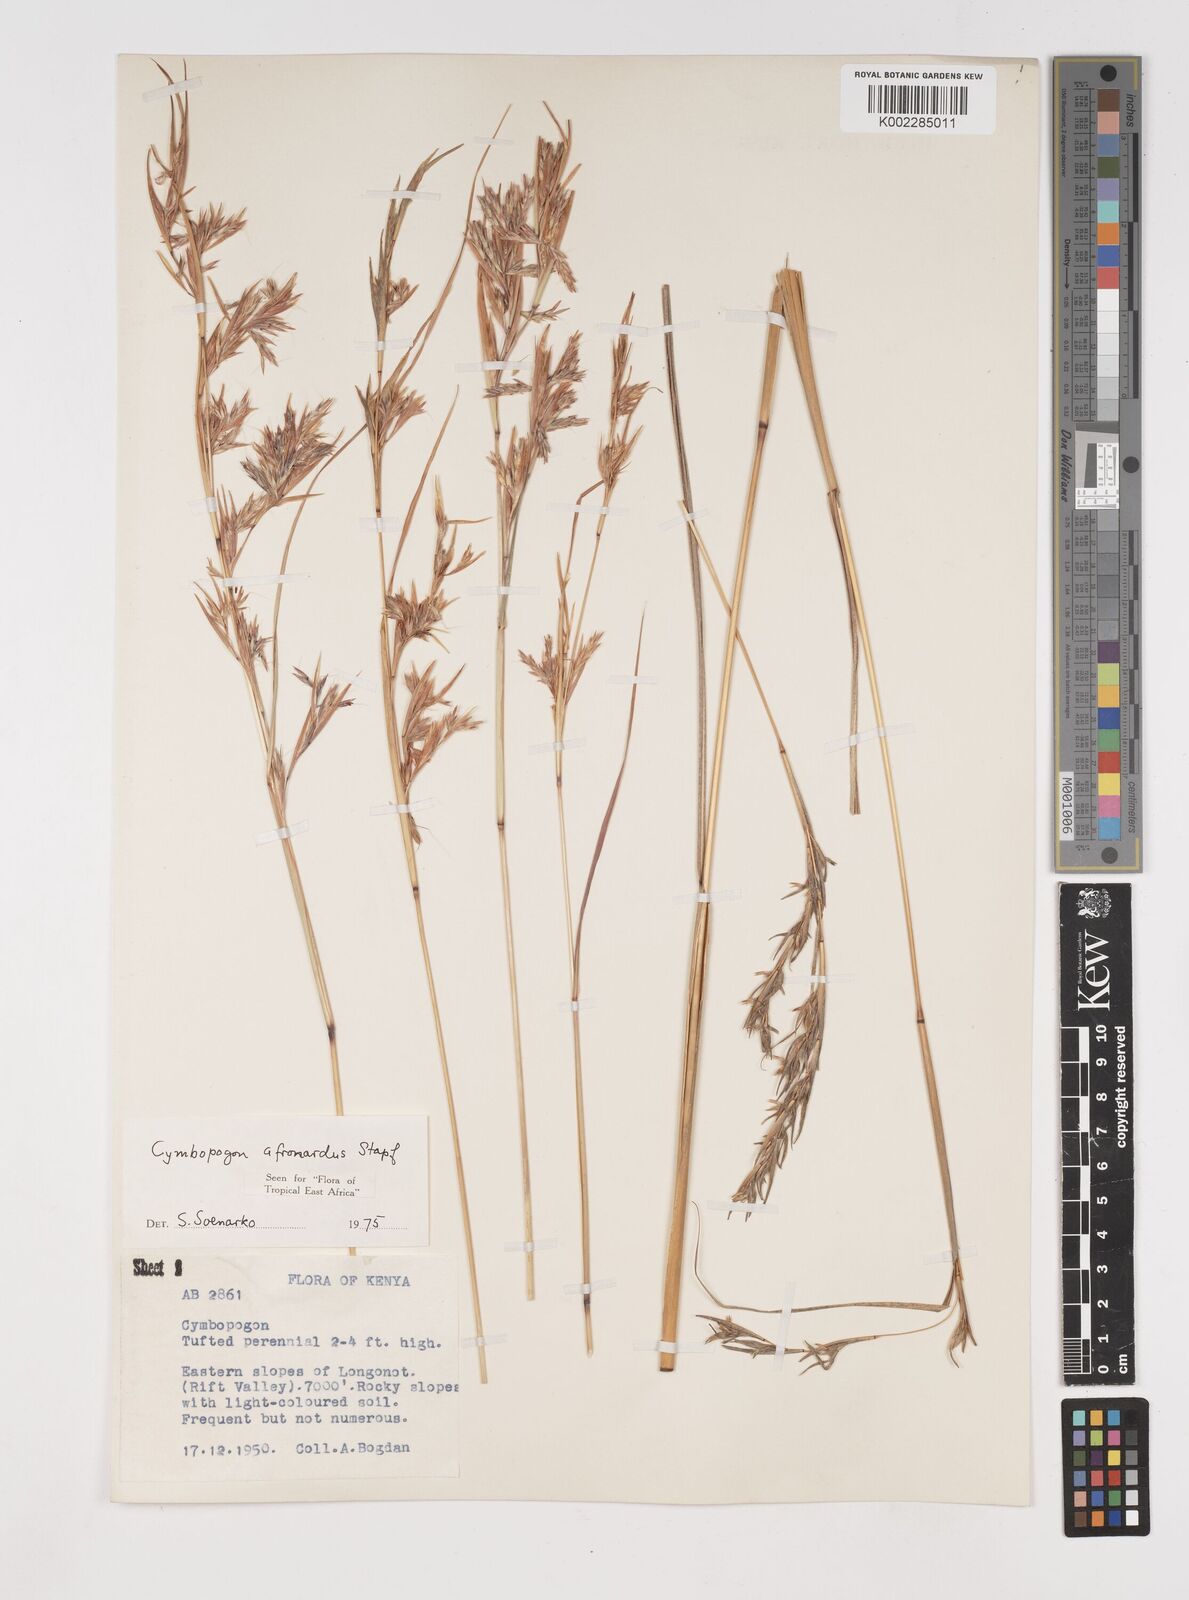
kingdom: Plantae
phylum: Tracheophyta
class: Liliopsida
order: Poales
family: Poaceae
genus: Cymbopogon
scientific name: Cymbopogon nardus
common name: Giant turpentine grass
